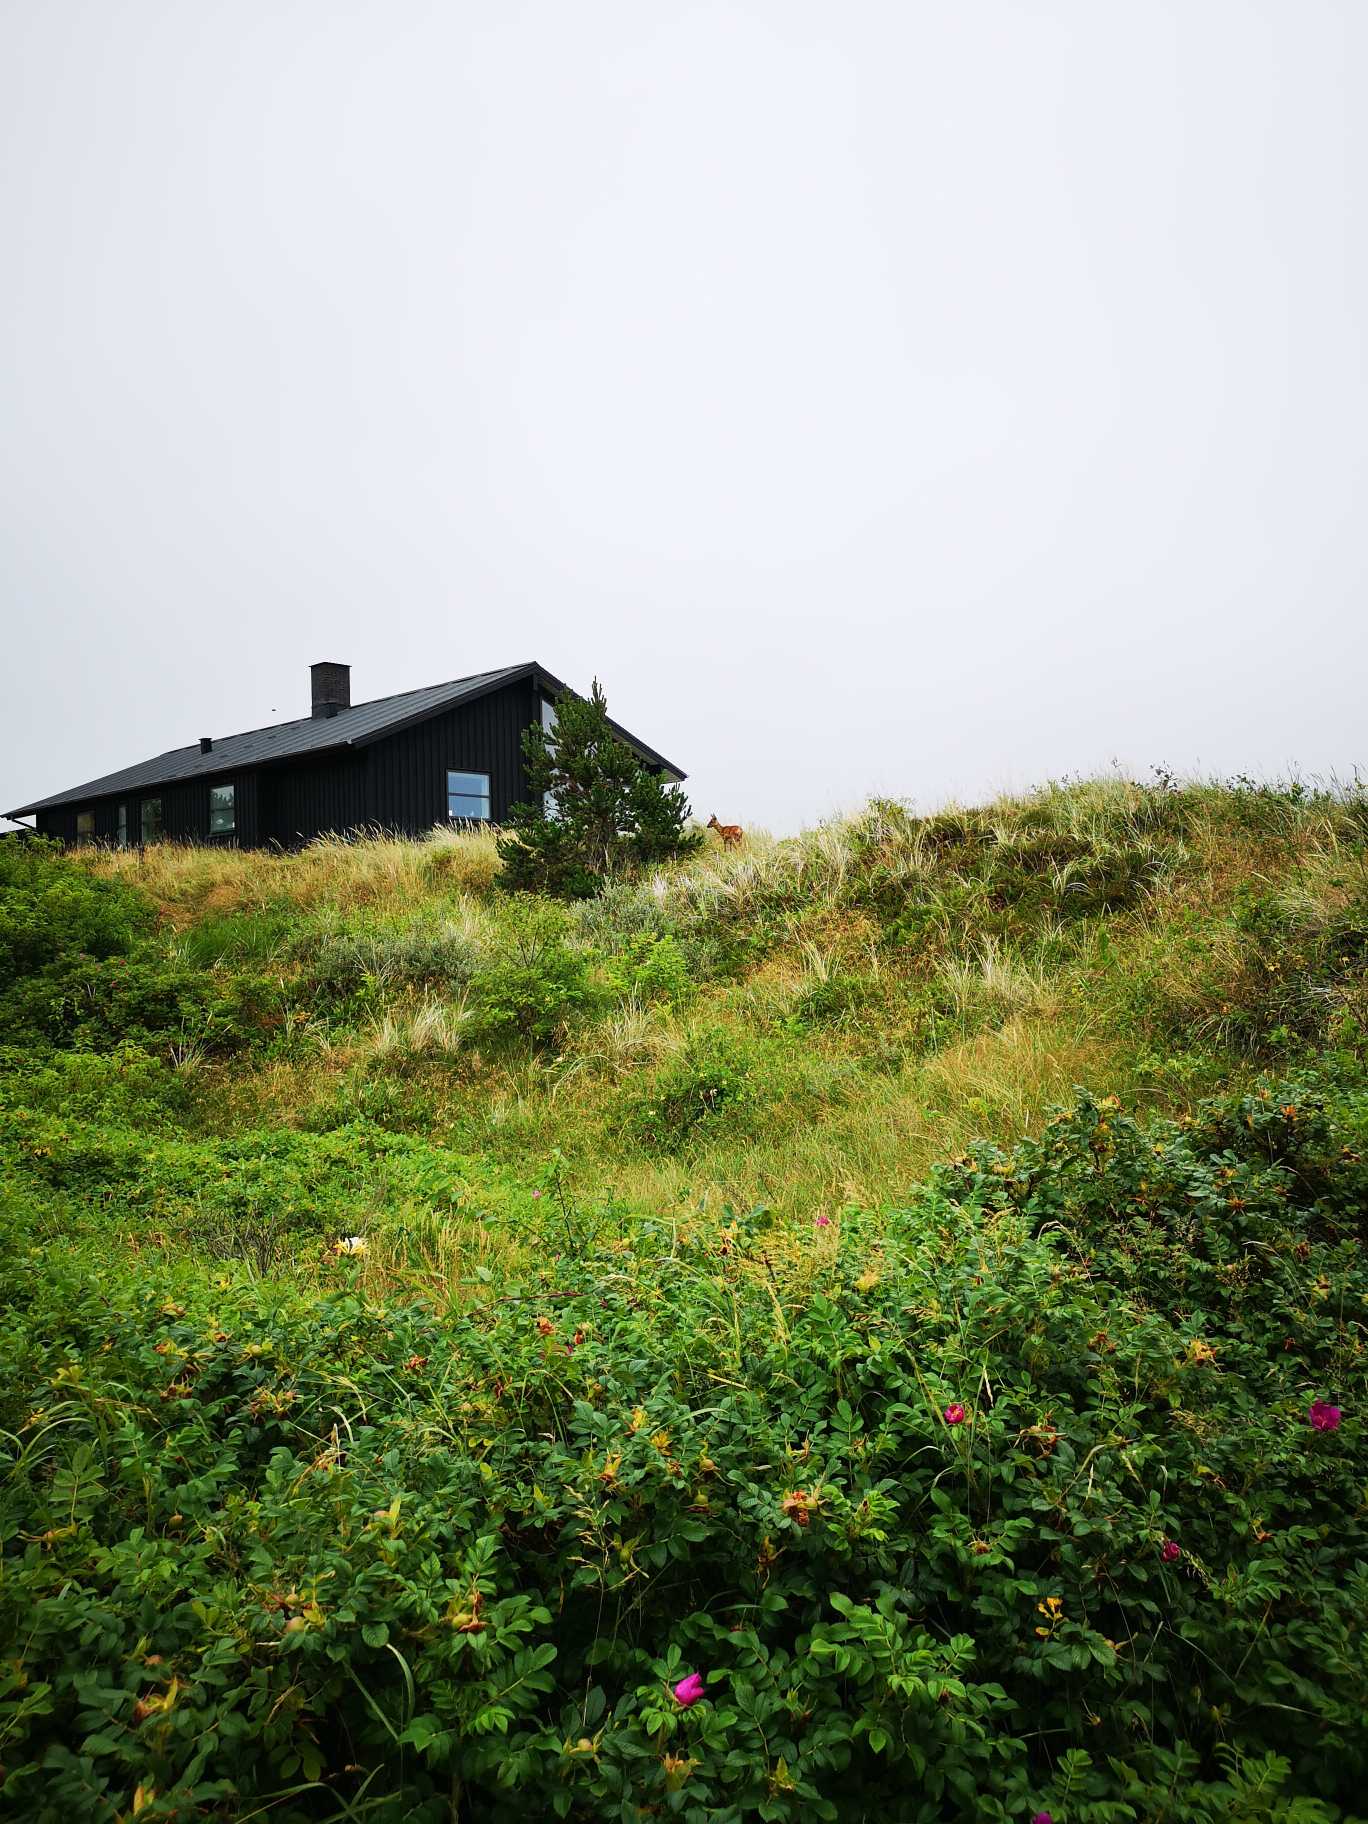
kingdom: Animalia
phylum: Chordata
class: Mammalia
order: Artiodactyla
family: Cervidae
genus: Capreolus
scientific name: Capreolus capreolus
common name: Rådyr
